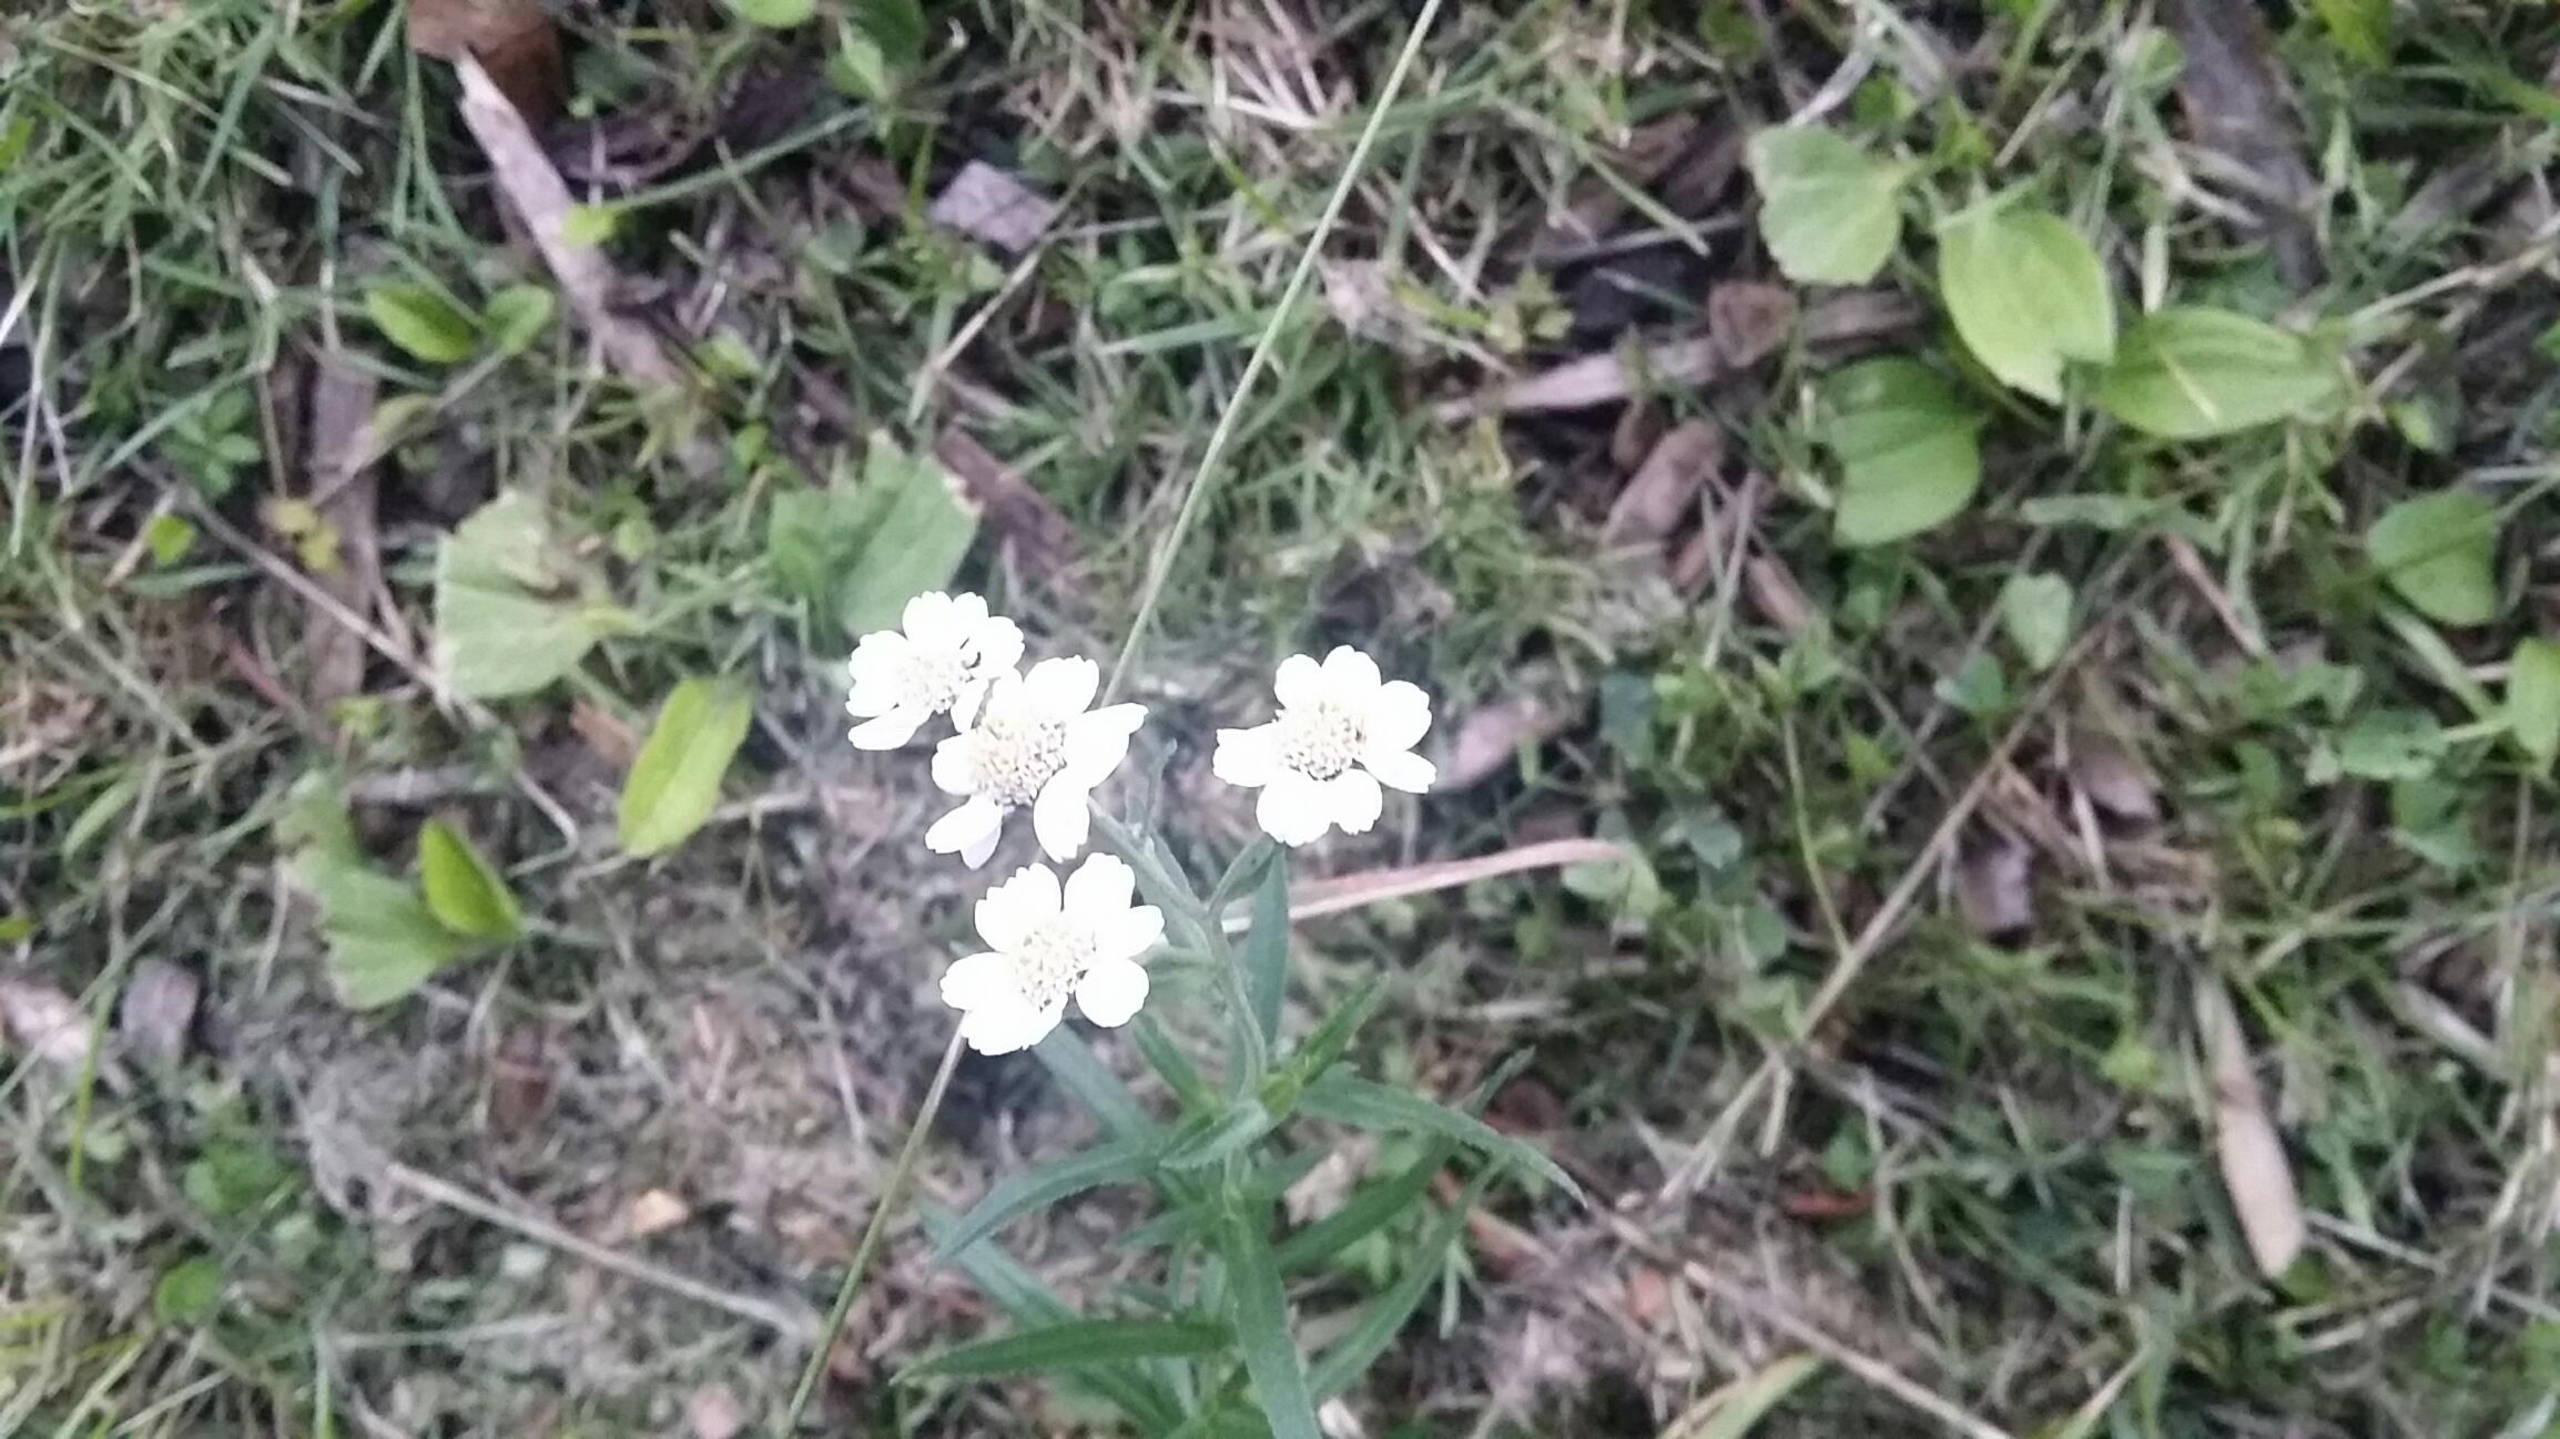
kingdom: Plantae
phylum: Tracheophyta
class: Magnoliopsida
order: Asterales
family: Asteraceae
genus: Achillea
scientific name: Achillea ptarmica
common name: Nyse-røllike
